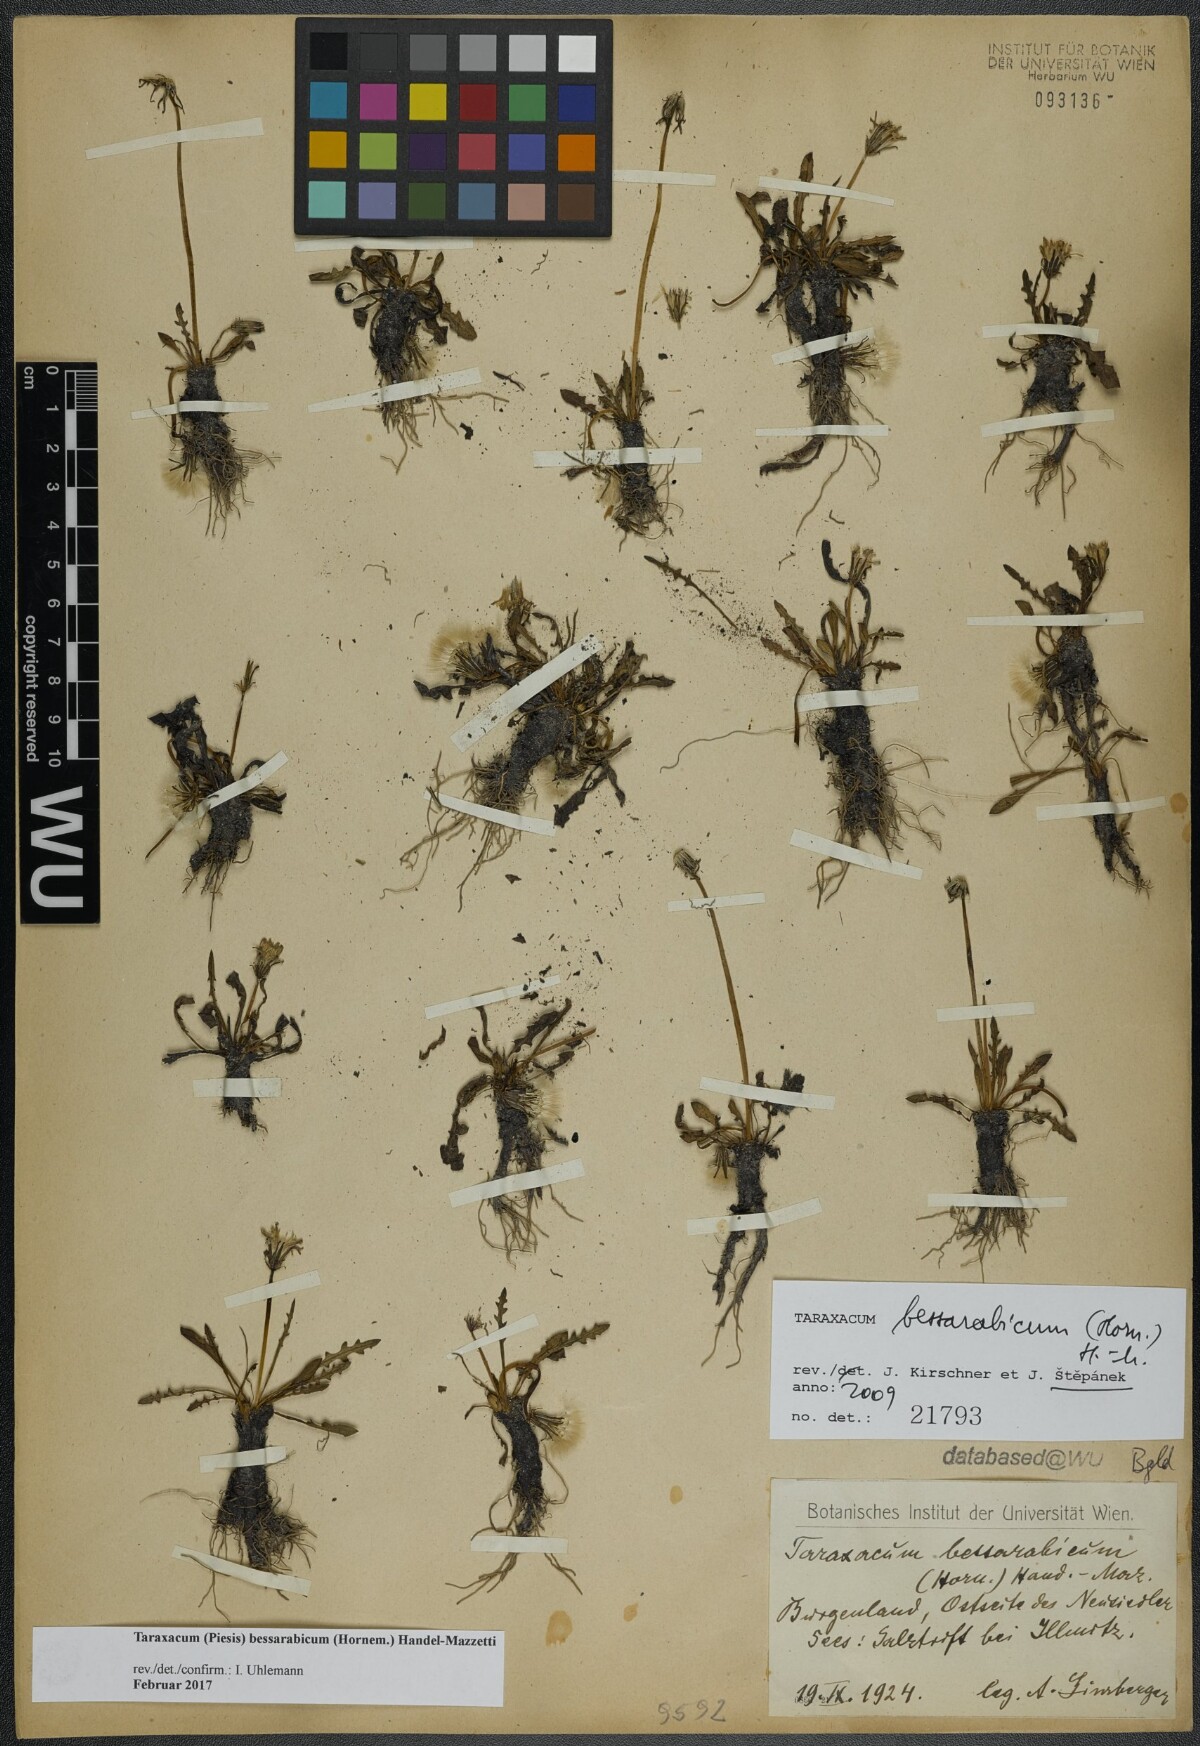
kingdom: Plantae
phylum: Tracheophyta
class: Magnoliopsida
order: Asterales
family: Asteraceae
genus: Taraxacum
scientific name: Taraxacum bessarabicum
